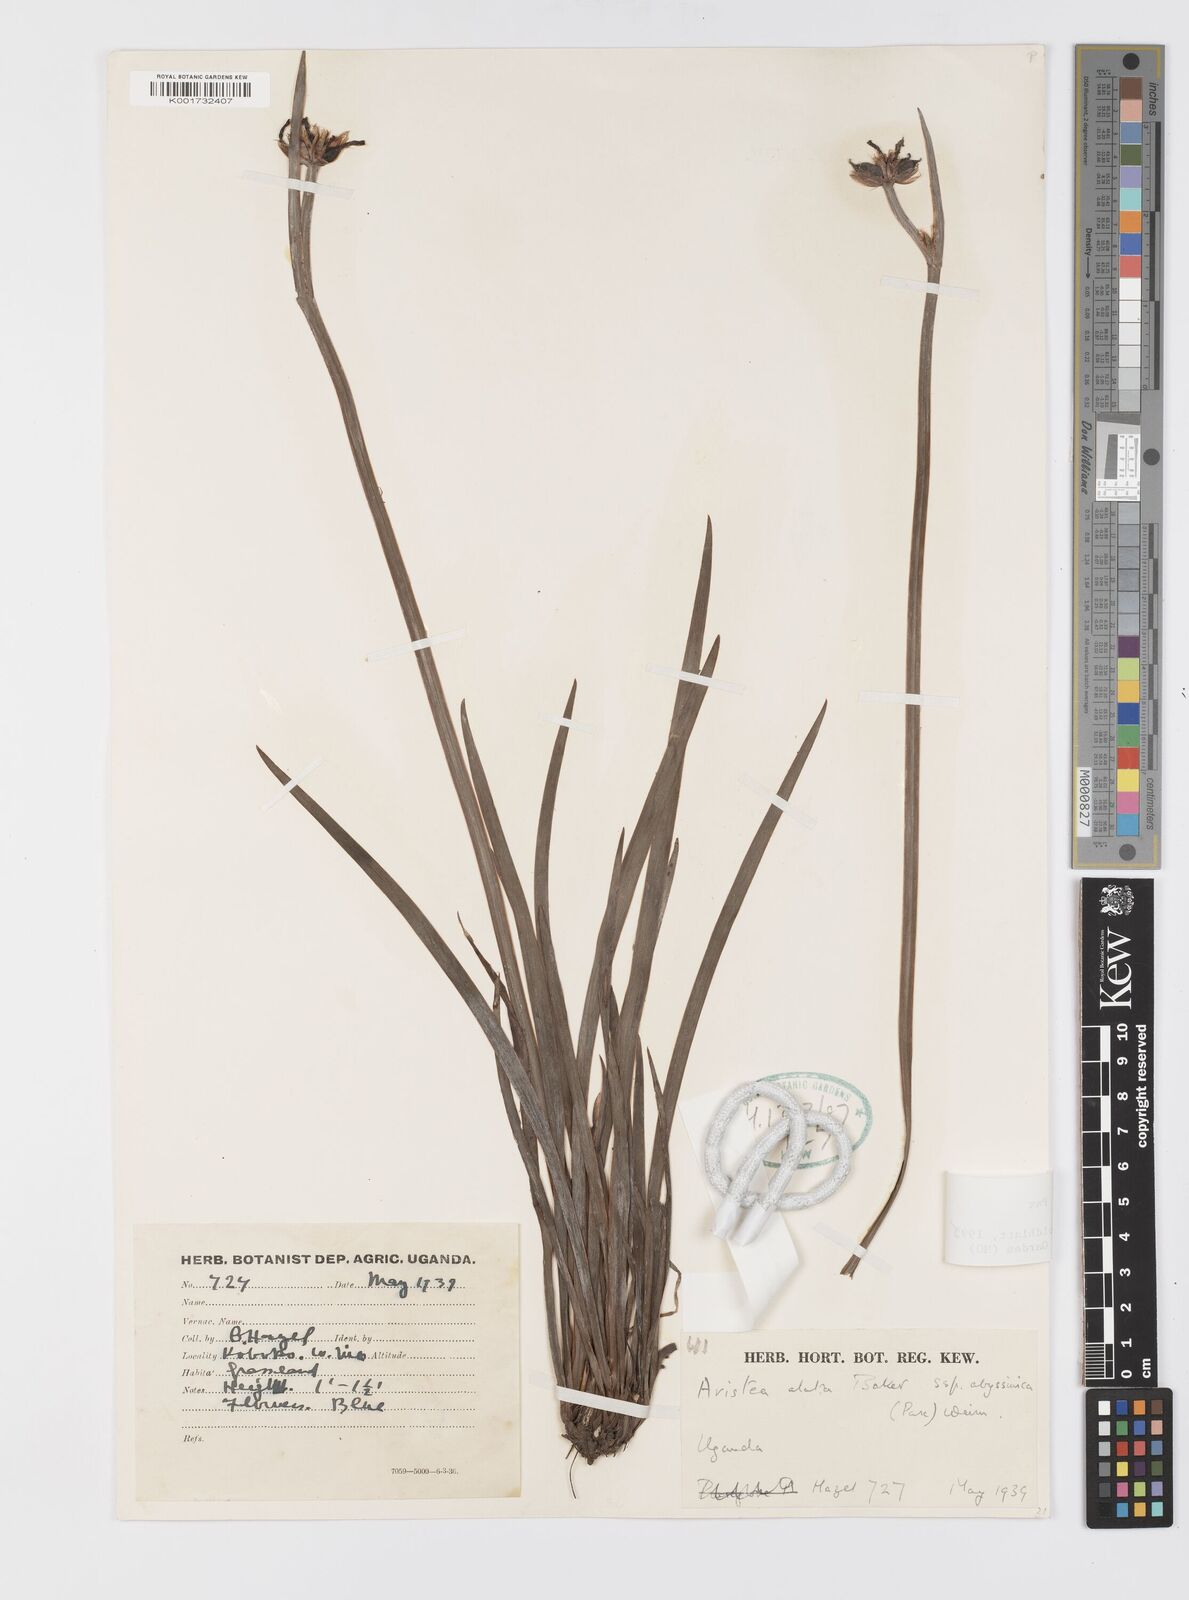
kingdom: Plantae
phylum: Tracheophyta
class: Liliopsida
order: Asparagales
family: Iridaceae
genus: Aristea
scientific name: Aristea abyssinica
